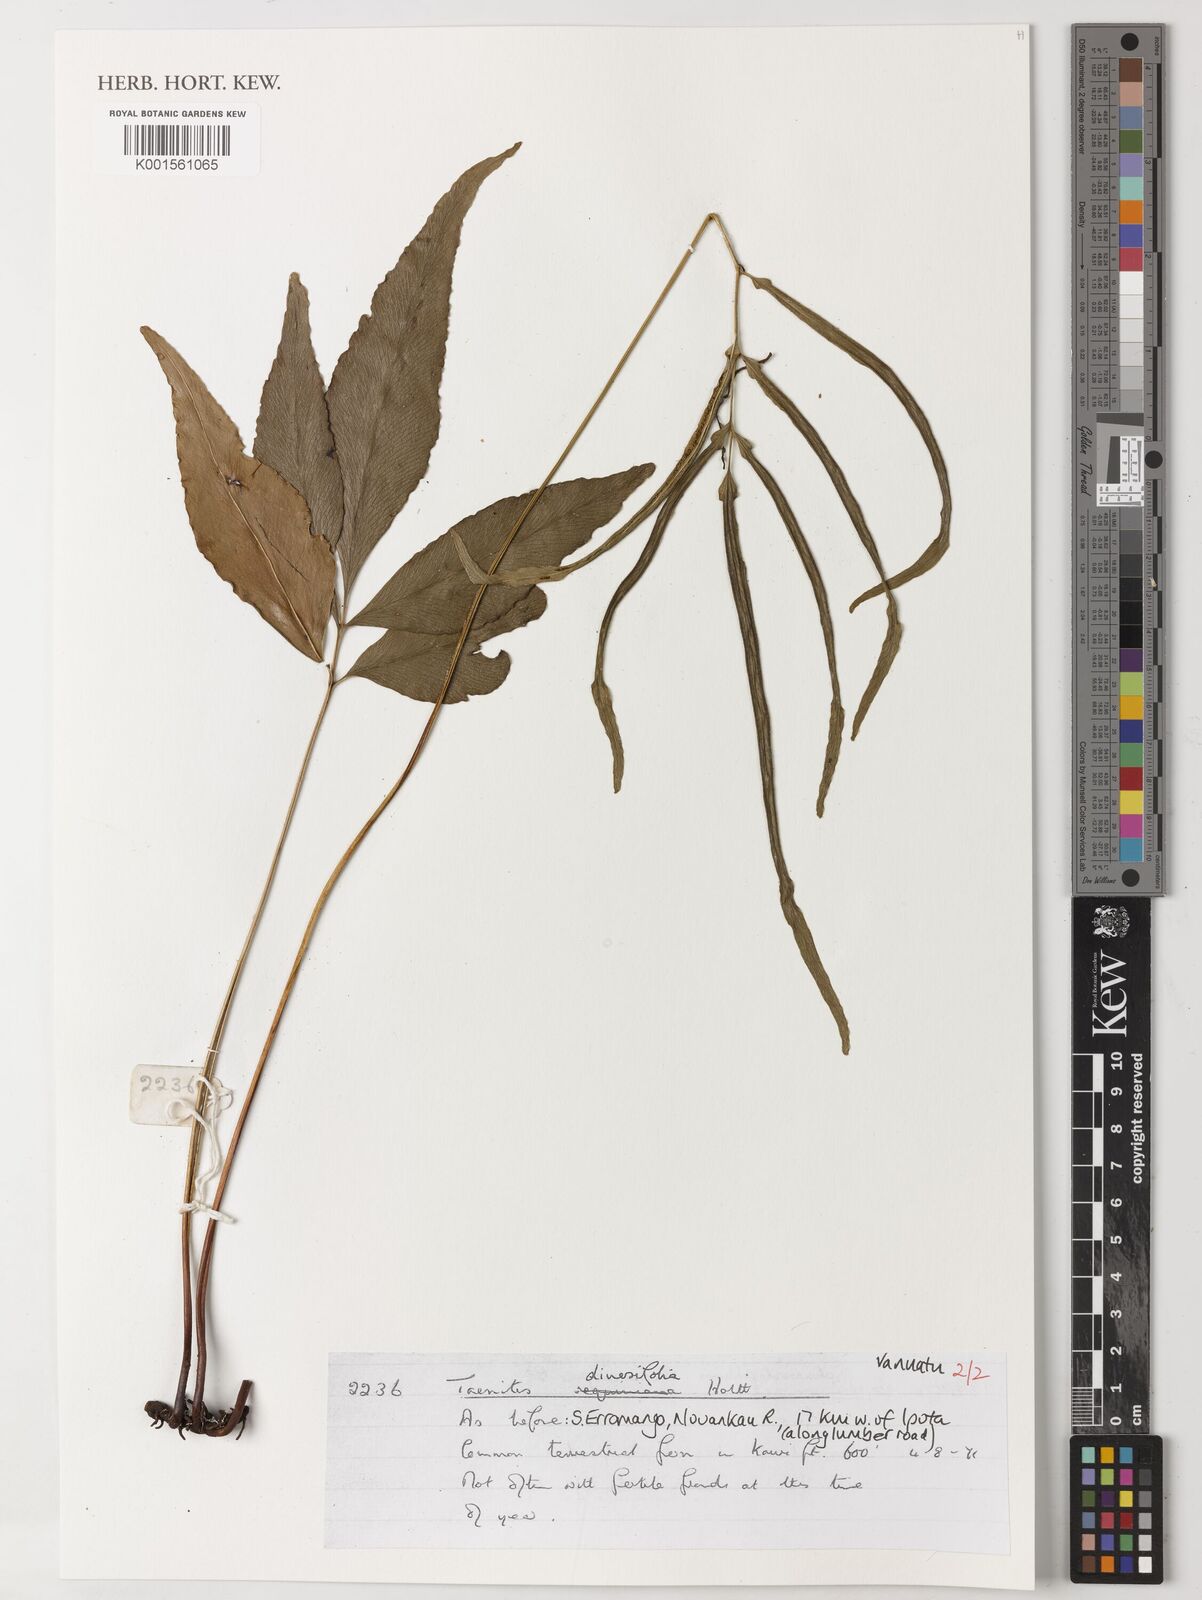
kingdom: Plantae
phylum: Tracheophyta
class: Polypodiopsida
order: Polypodiales
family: Pteridaceae
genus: Taenitis
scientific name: Taenitis diversifolia
